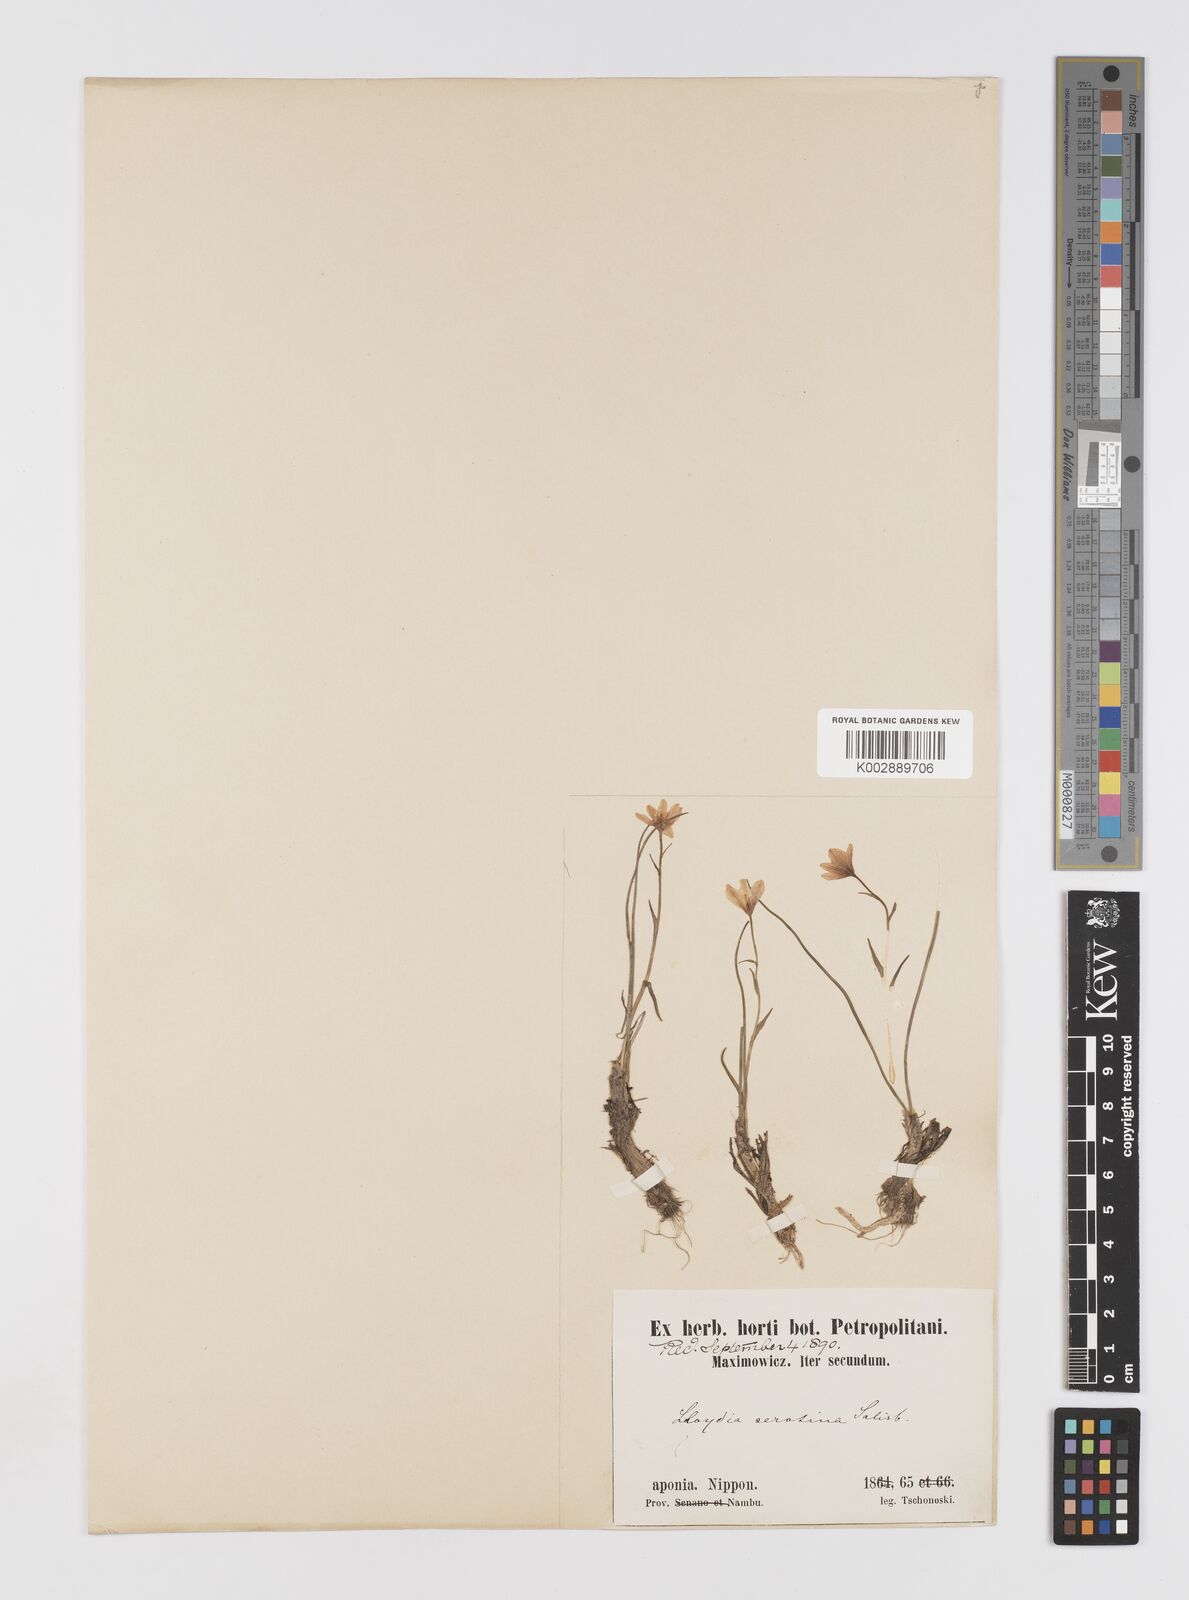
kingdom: Plantae
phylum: Tracheophyta
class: Liliopsida
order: Liliales
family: Liliaceae
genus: Gagea
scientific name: Gagea serotina
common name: Snowdon lily
